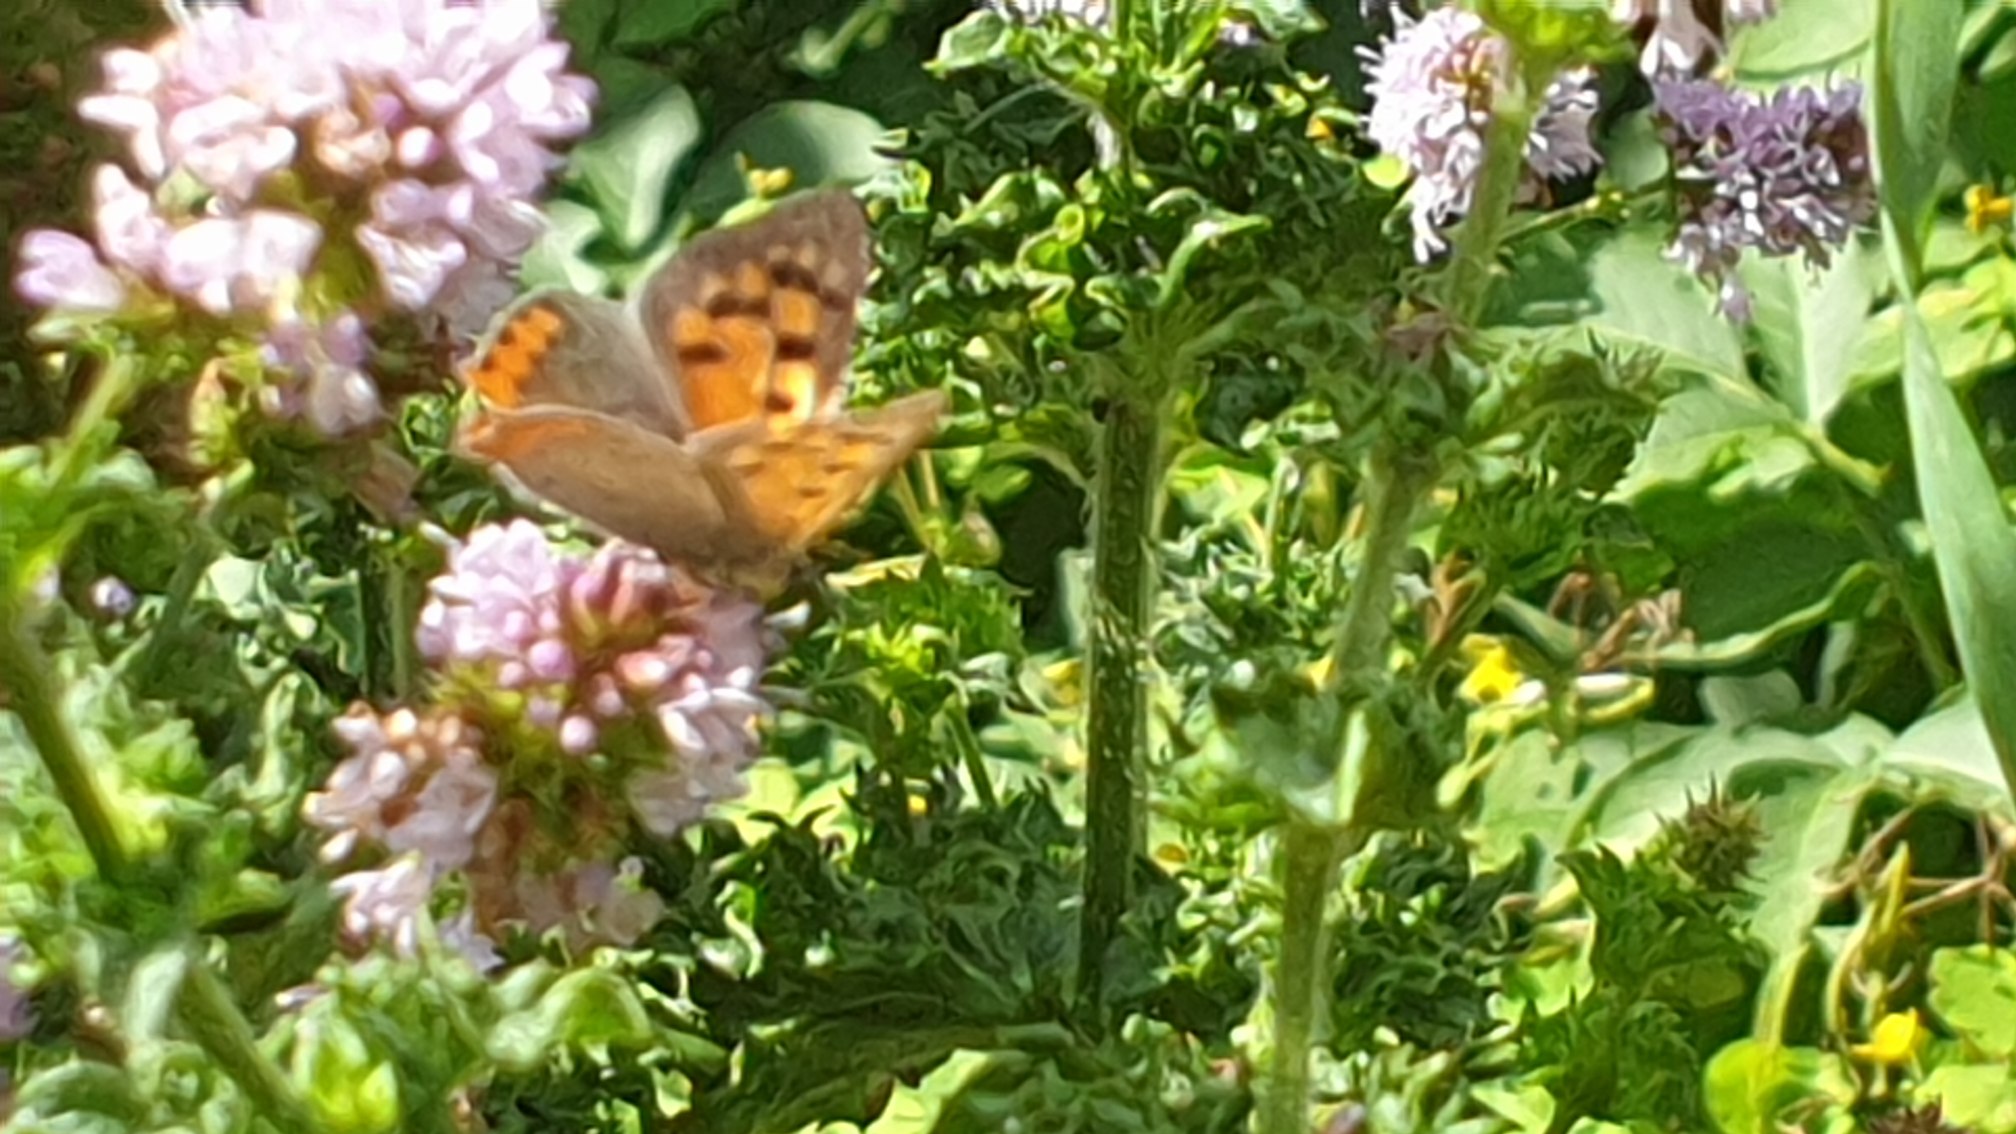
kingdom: Animalia
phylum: Arthropoda
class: Insecta
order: Lepidoptera
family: Lycaenidae
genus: Lycaena
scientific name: Lycaena phlaeas
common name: Lille ildfugl
